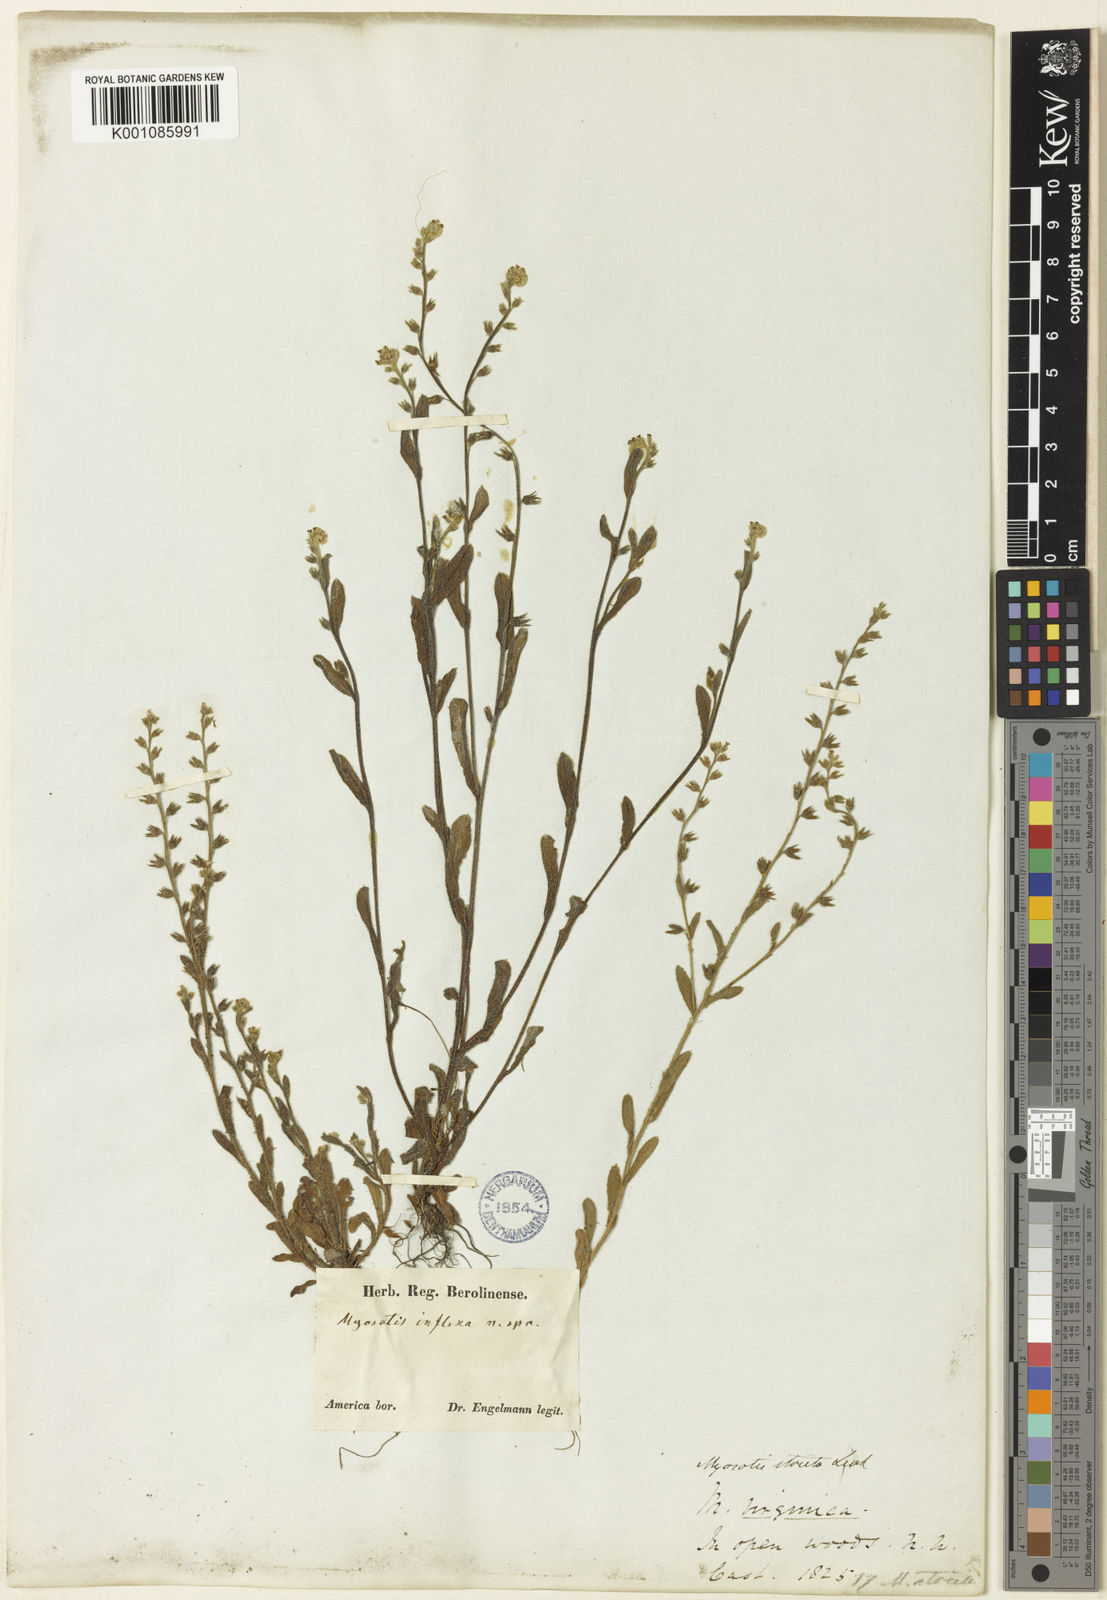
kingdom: Plantae
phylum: Tracheophyta
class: Magnoliopsida
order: Boraginales
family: Boraginaceae
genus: Myosotis
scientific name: Myosotis verna
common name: Early forget-me-not
